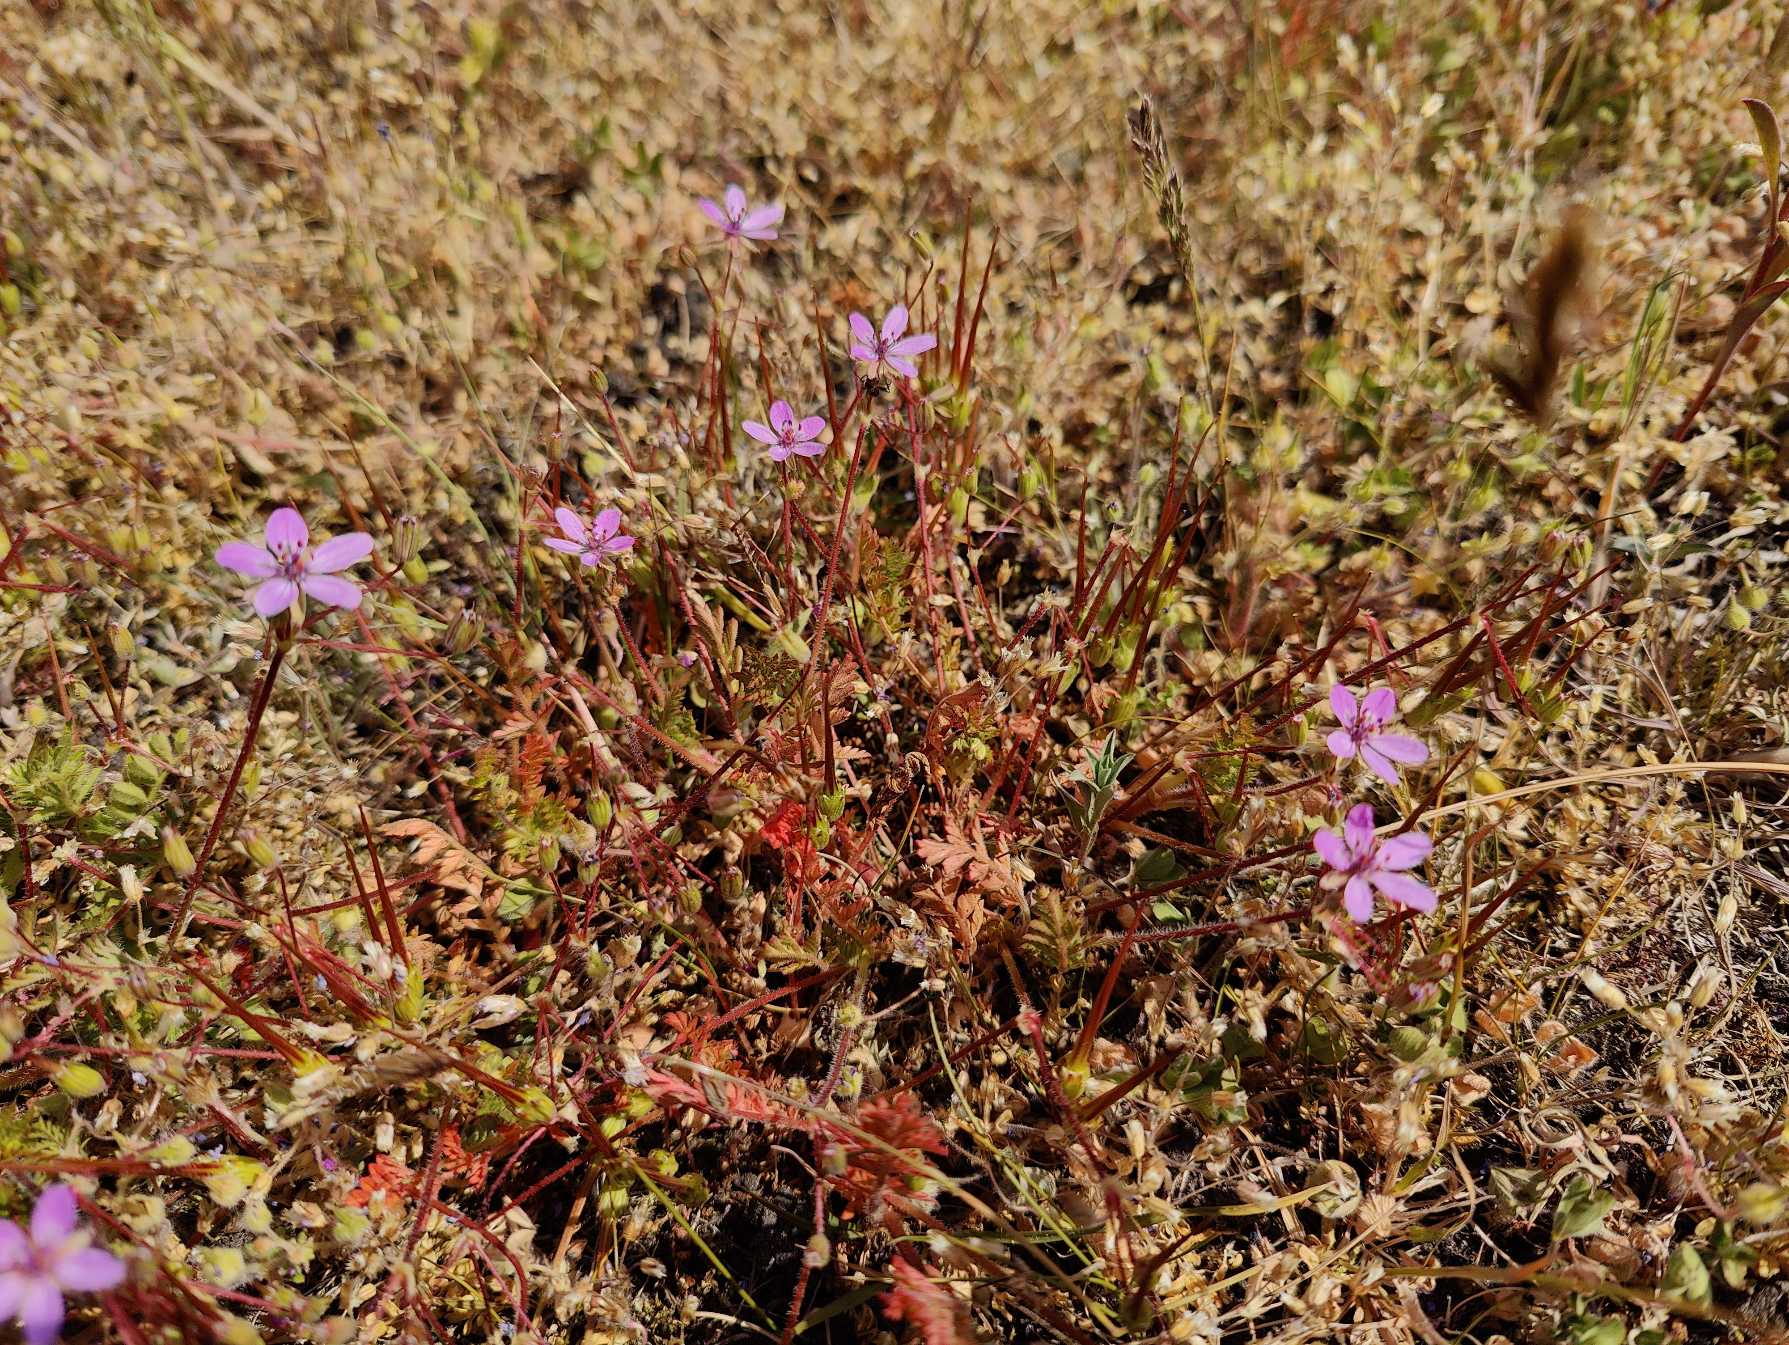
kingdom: Plantae
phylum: Tracheophyta
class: Magnoliopsida
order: Geraniales
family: Geraniaceae
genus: Erodium
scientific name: Erodium cicutarium
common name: Hejrenæb
